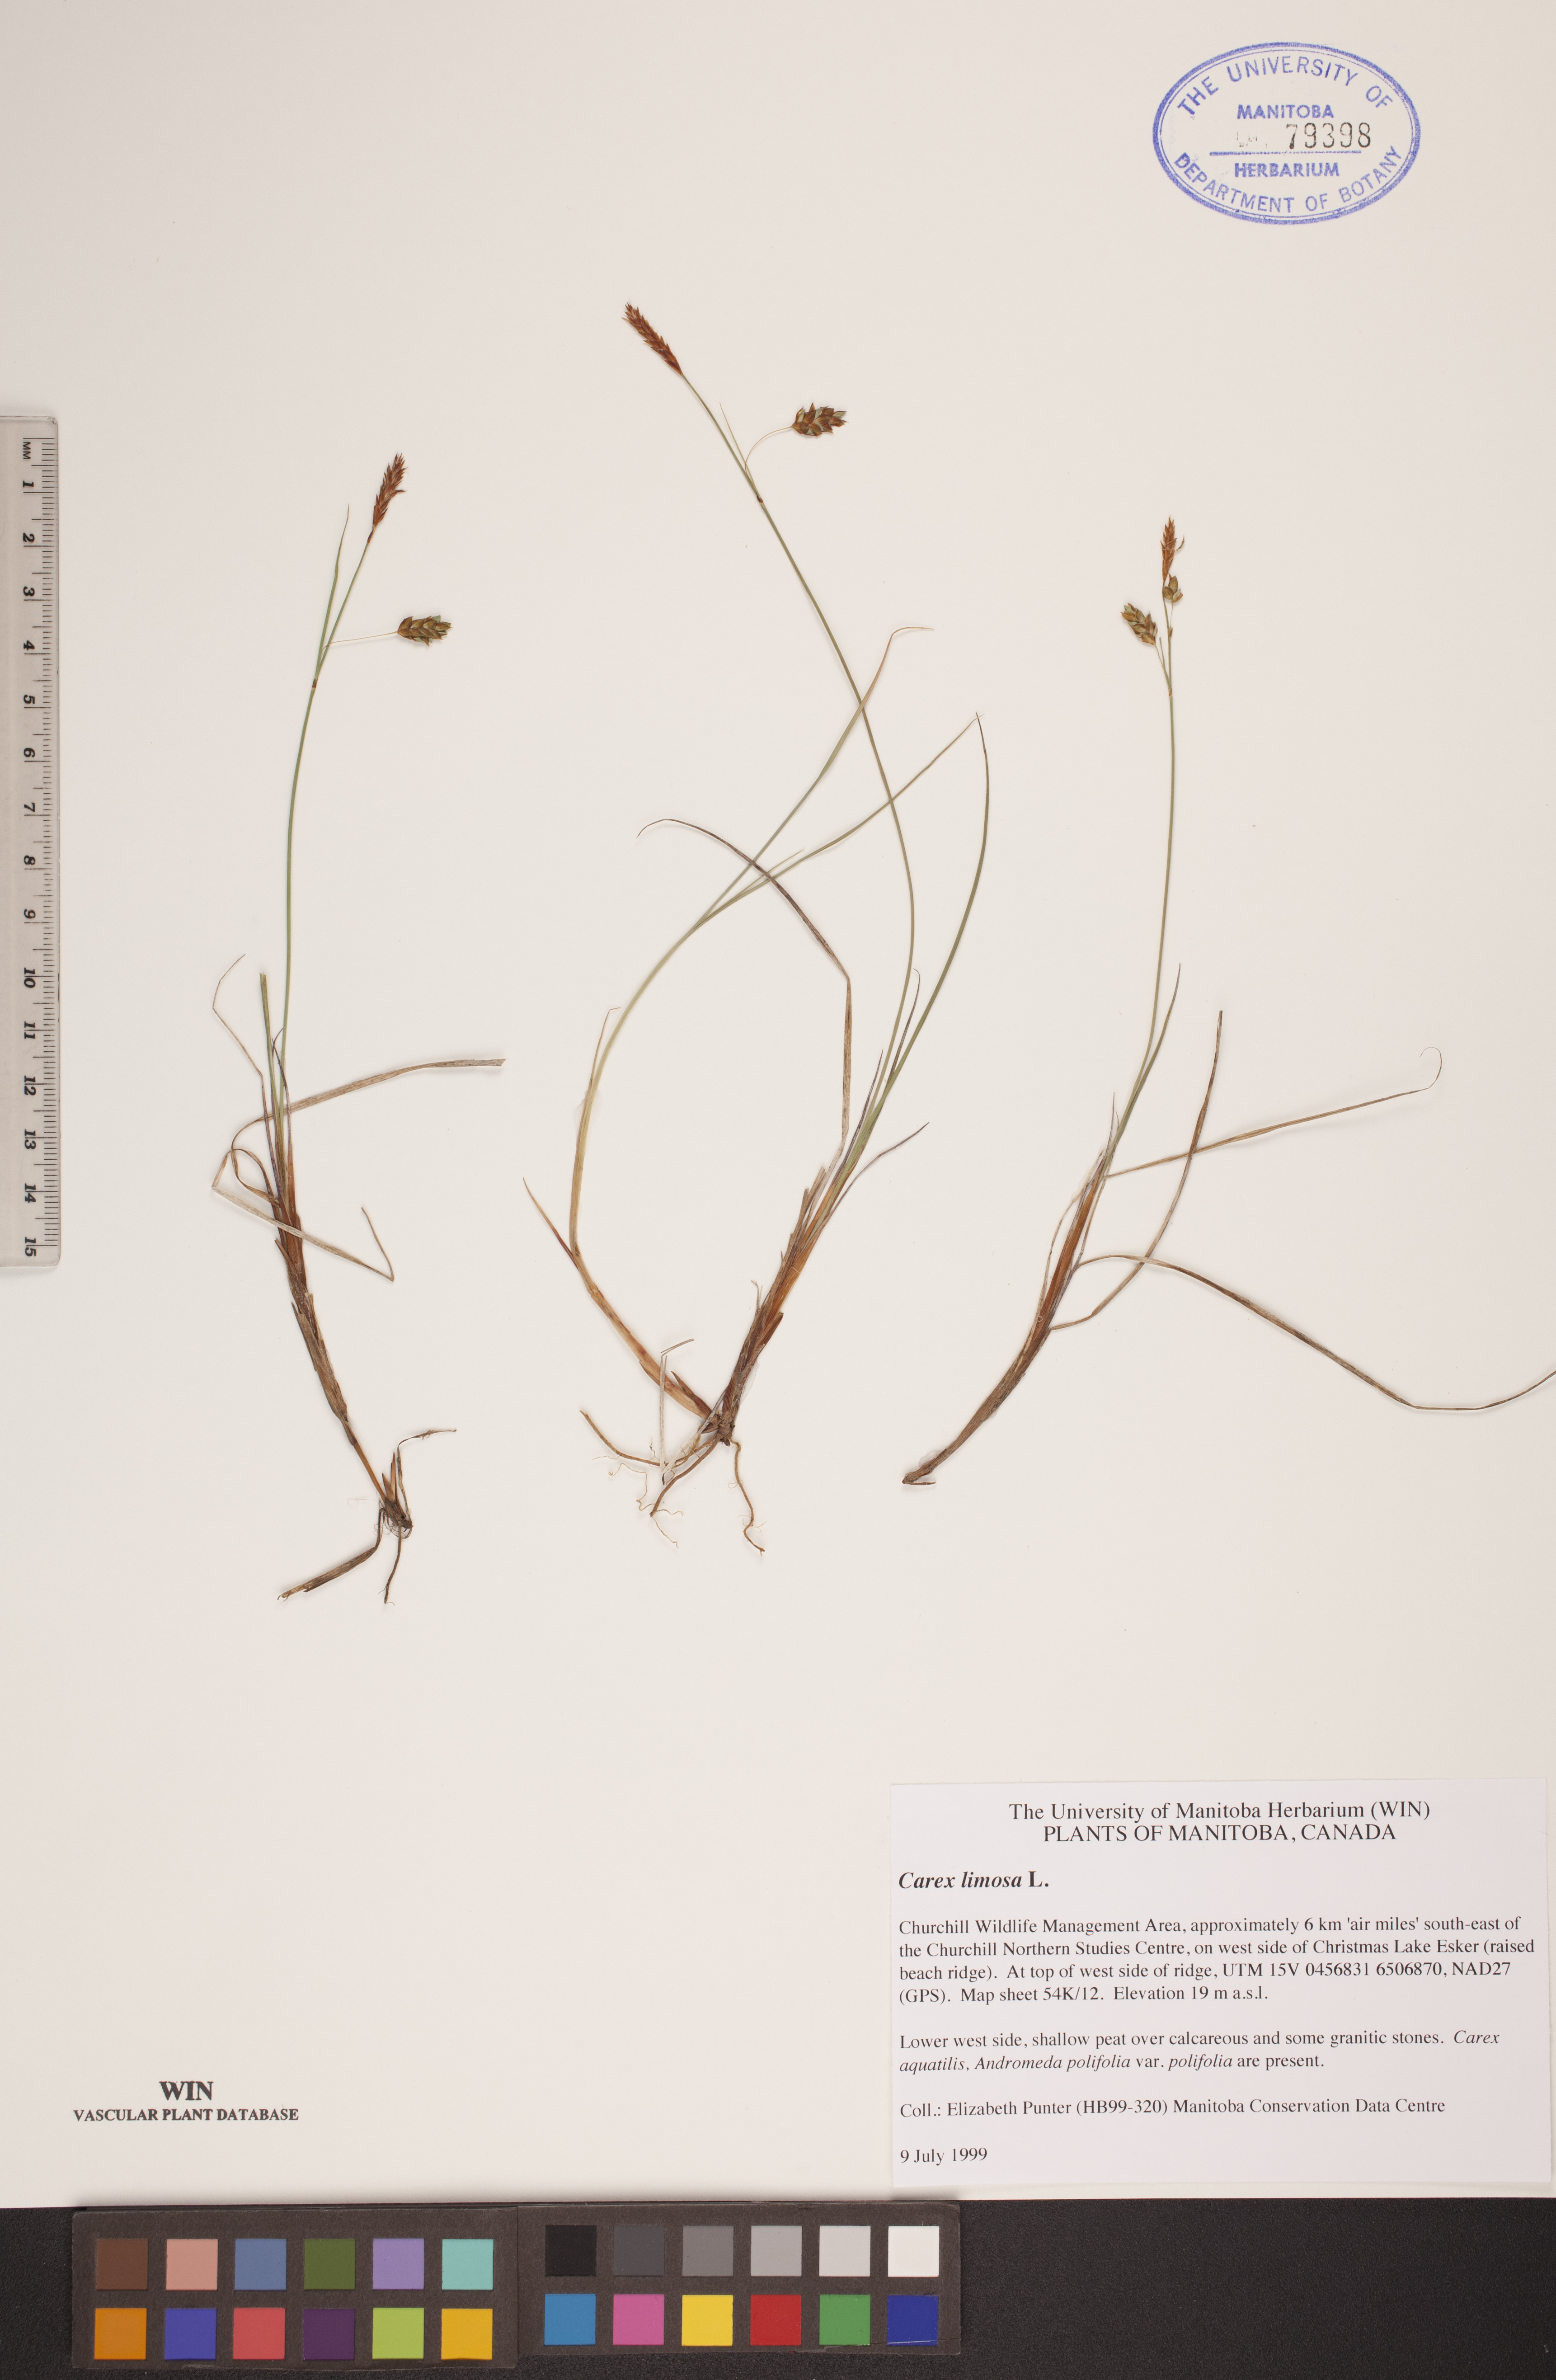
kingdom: Plantae
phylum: Tracheophyta
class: Liliopsida
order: Poales
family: Cyperaceae
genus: Carex
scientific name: Carex limosa
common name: Bog sedge
